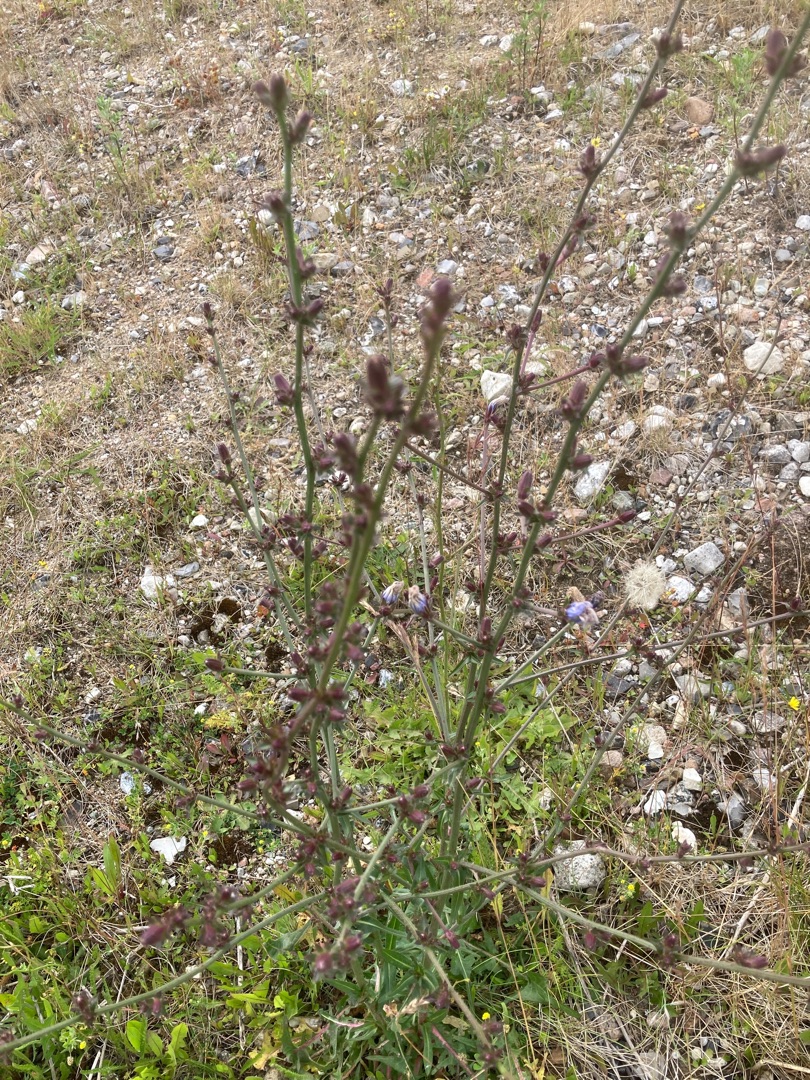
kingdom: Plantae
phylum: Tracheophyta
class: Magnoliopsida
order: Asterales
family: Asteraceae
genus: Cichorium
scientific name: Cichorium intybus
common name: Cikorie
